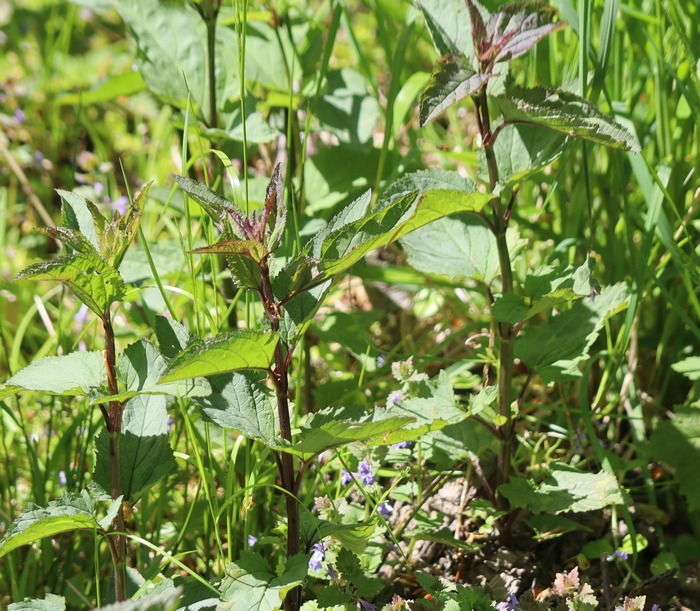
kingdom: Plantae
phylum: Tracheophyta
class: Magnoliopsida
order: Lamiales
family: Scrophulariaceae
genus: Scrophularia
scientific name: Scrophularia nodosa
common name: Knoldet brunrod
